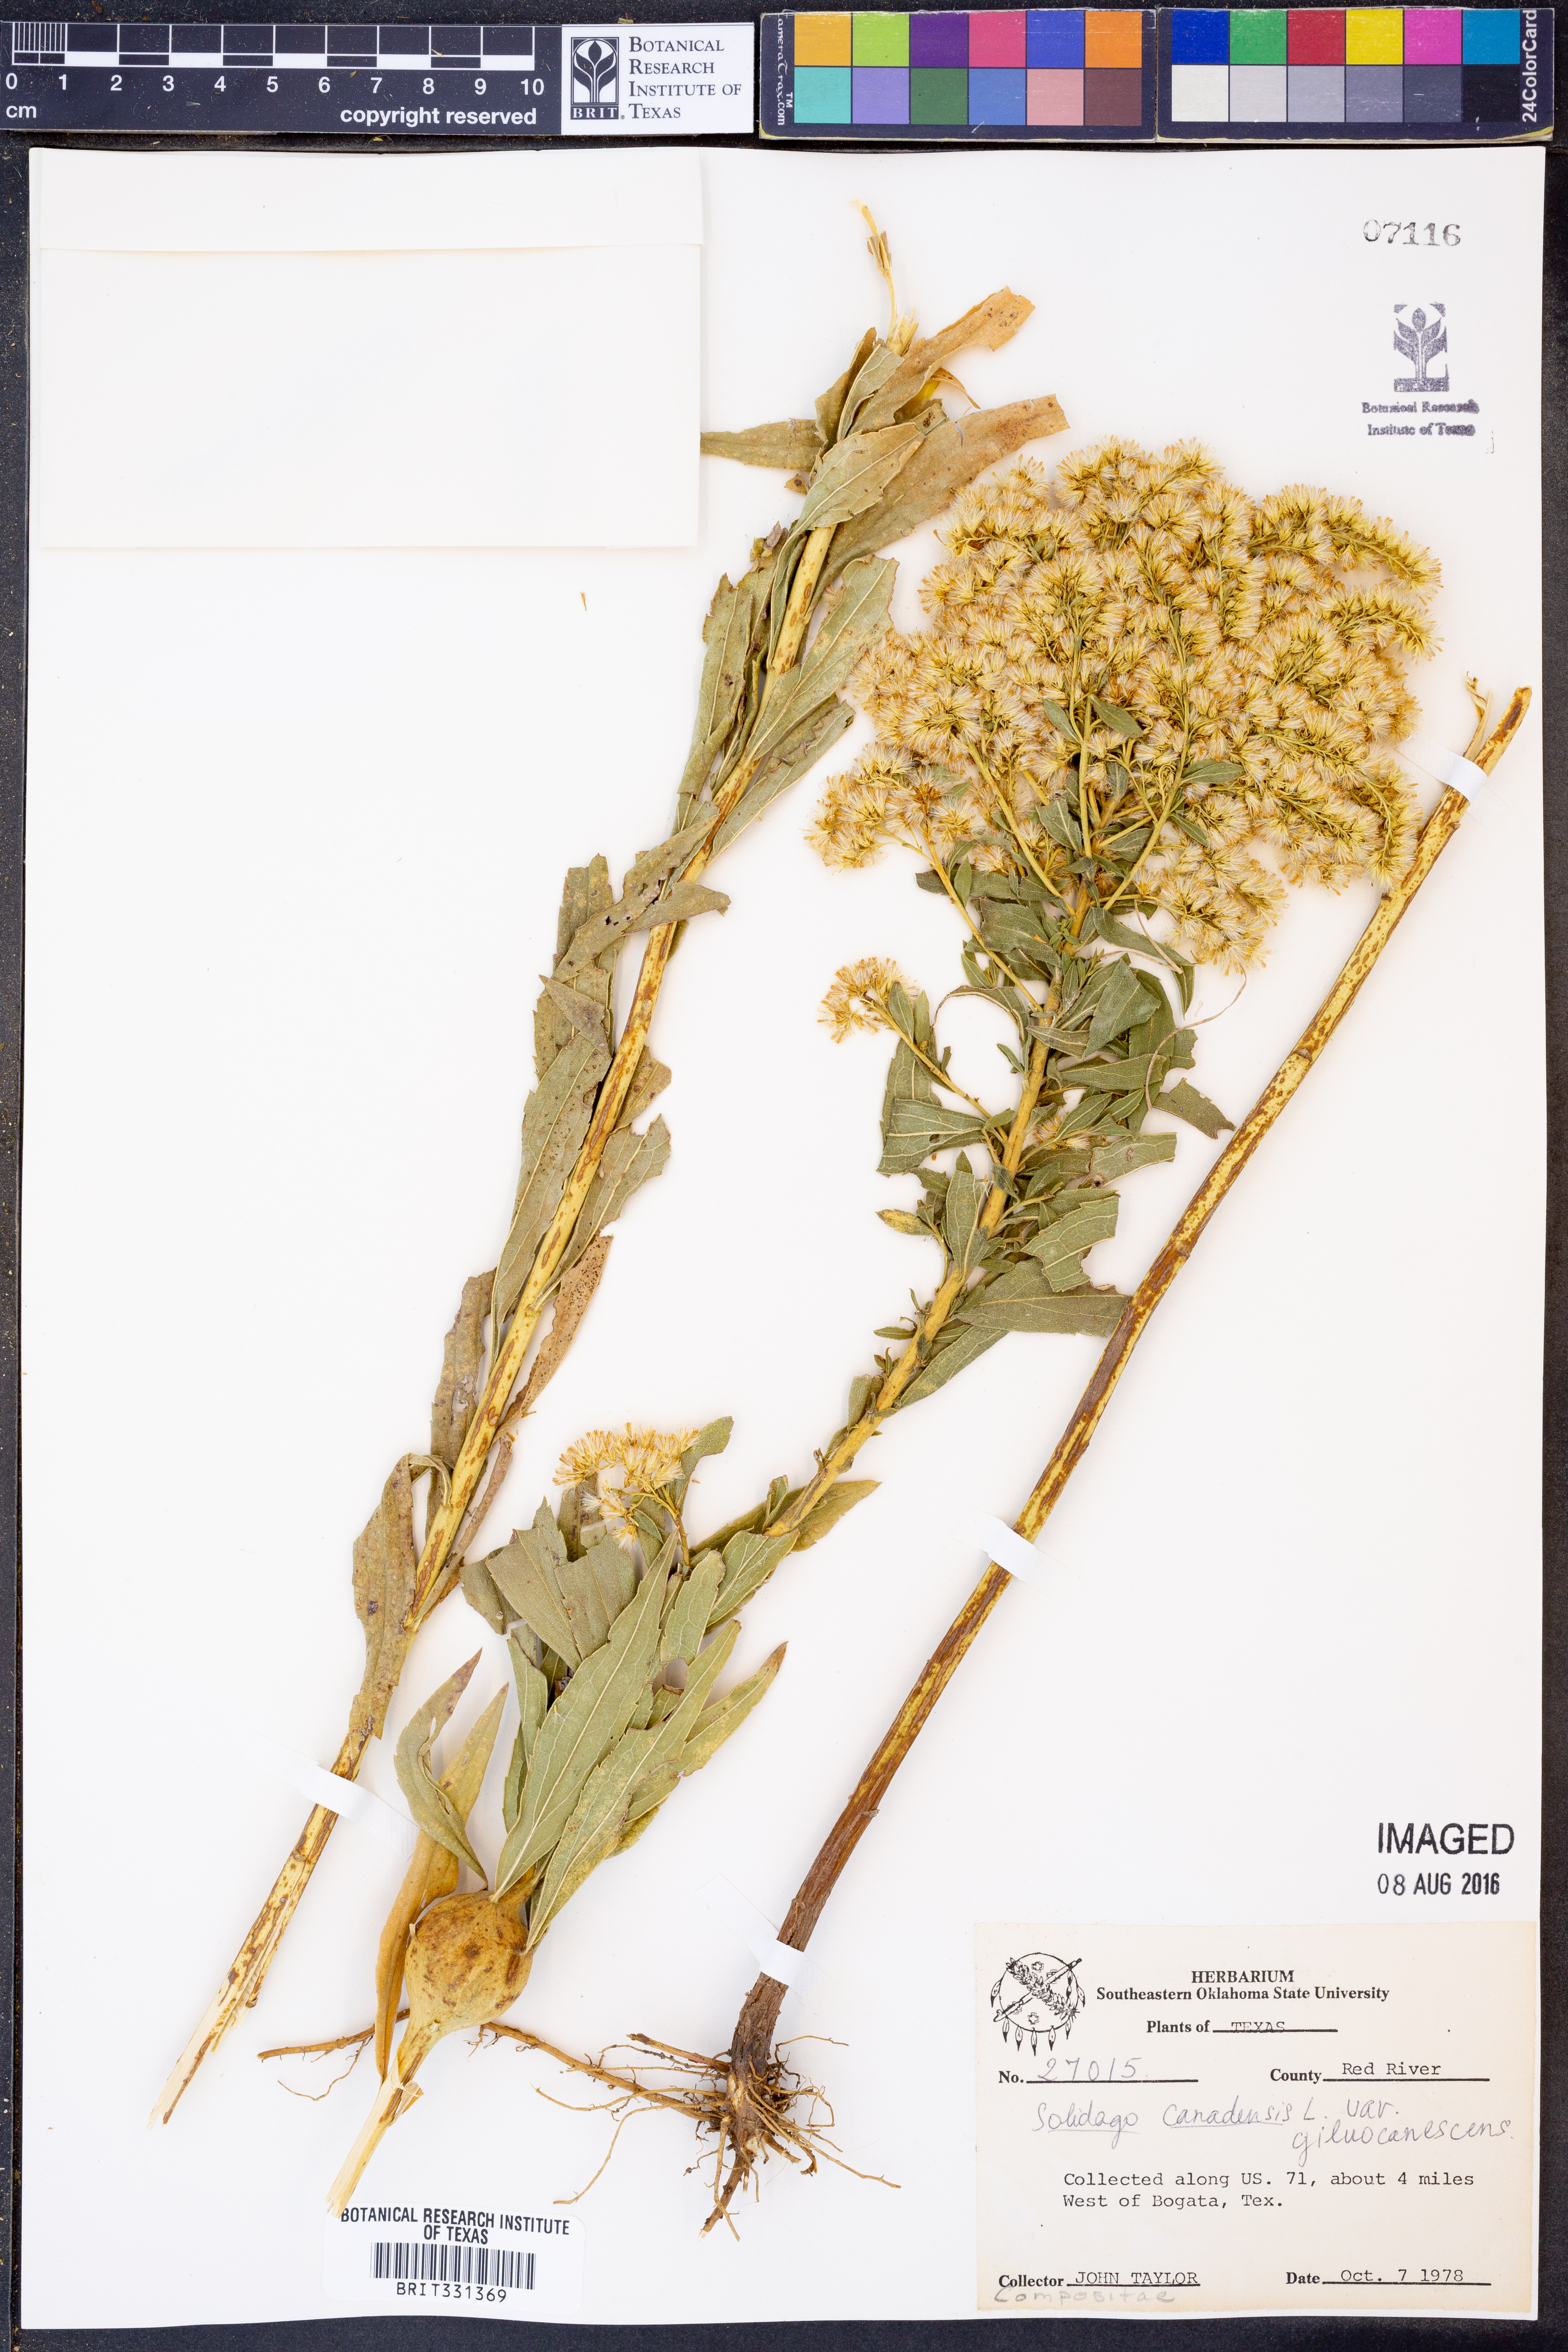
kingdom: Plantae
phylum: Tracheophyta
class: Magnoliopsida
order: Asterales
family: Asteraceae
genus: Solidago
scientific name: Solidago altissima
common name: Late goldenrod
